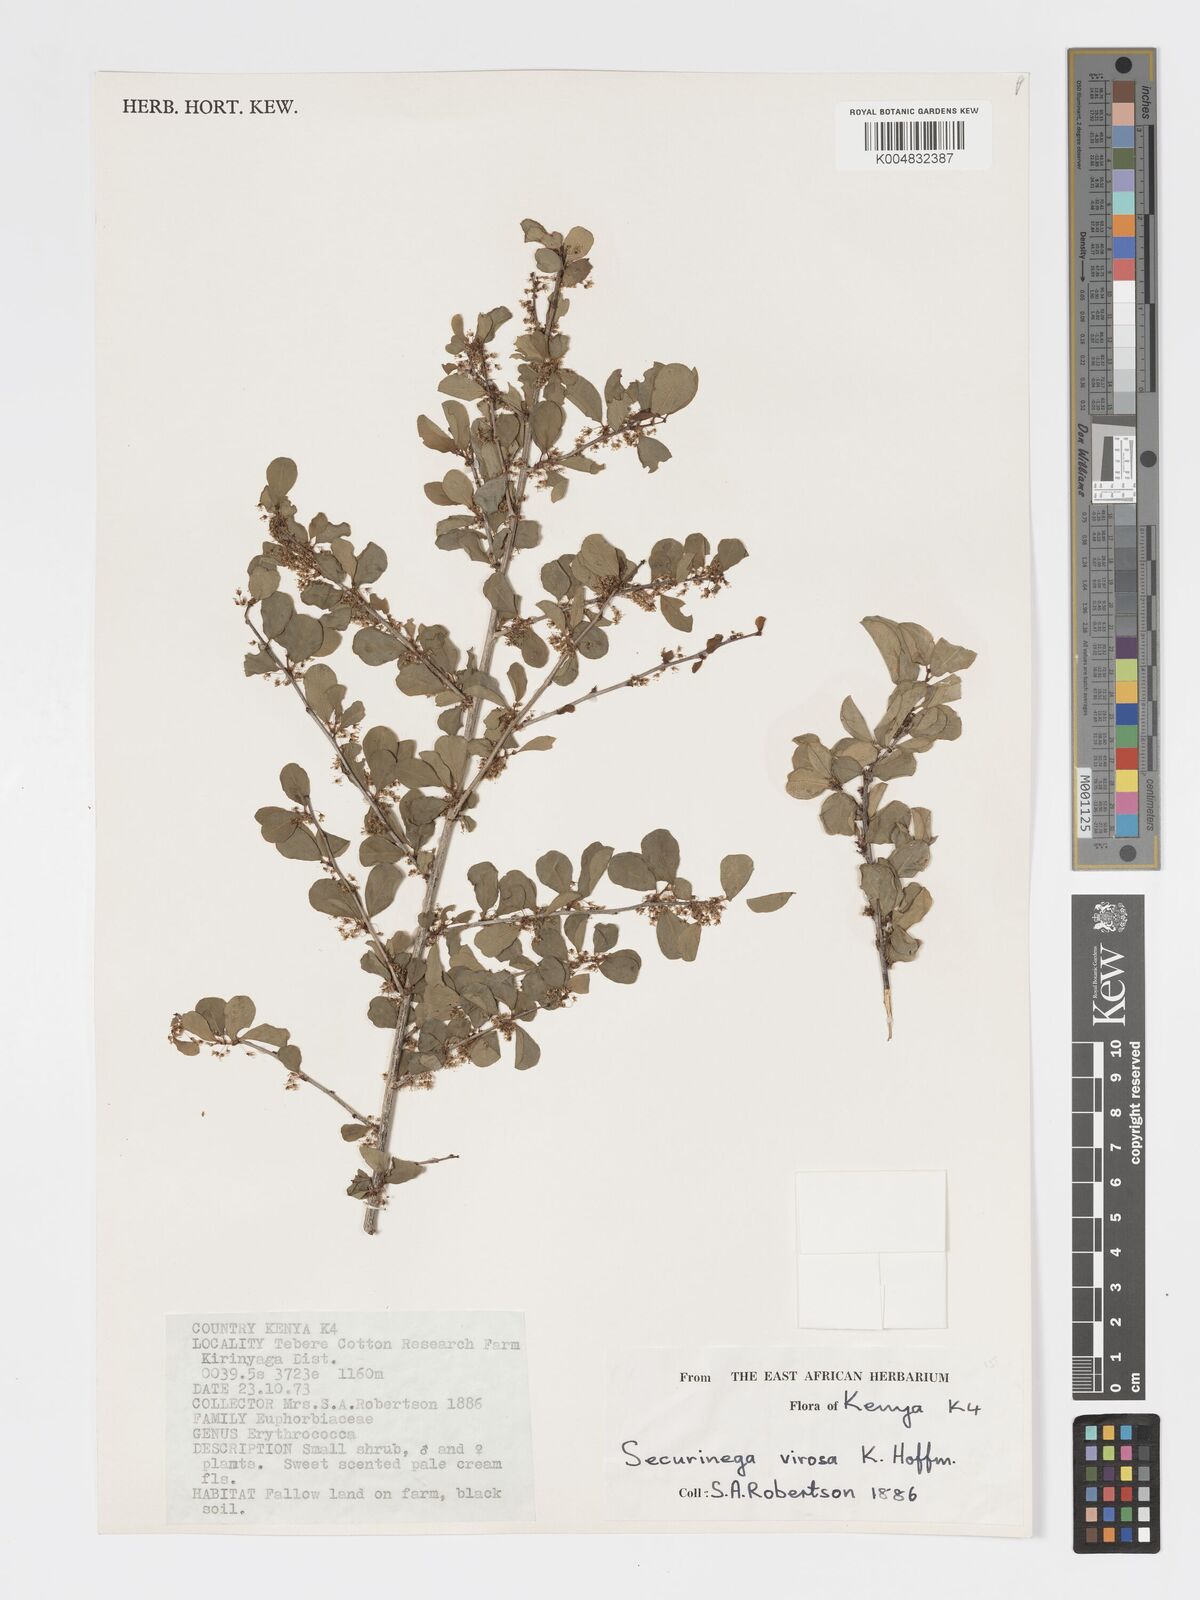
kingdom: Plantae
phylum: Tracheophyta
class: Magnoliopsida
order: Malpighiales
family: Phyllanthaceae
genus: Flueggea
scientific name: Flueggea
